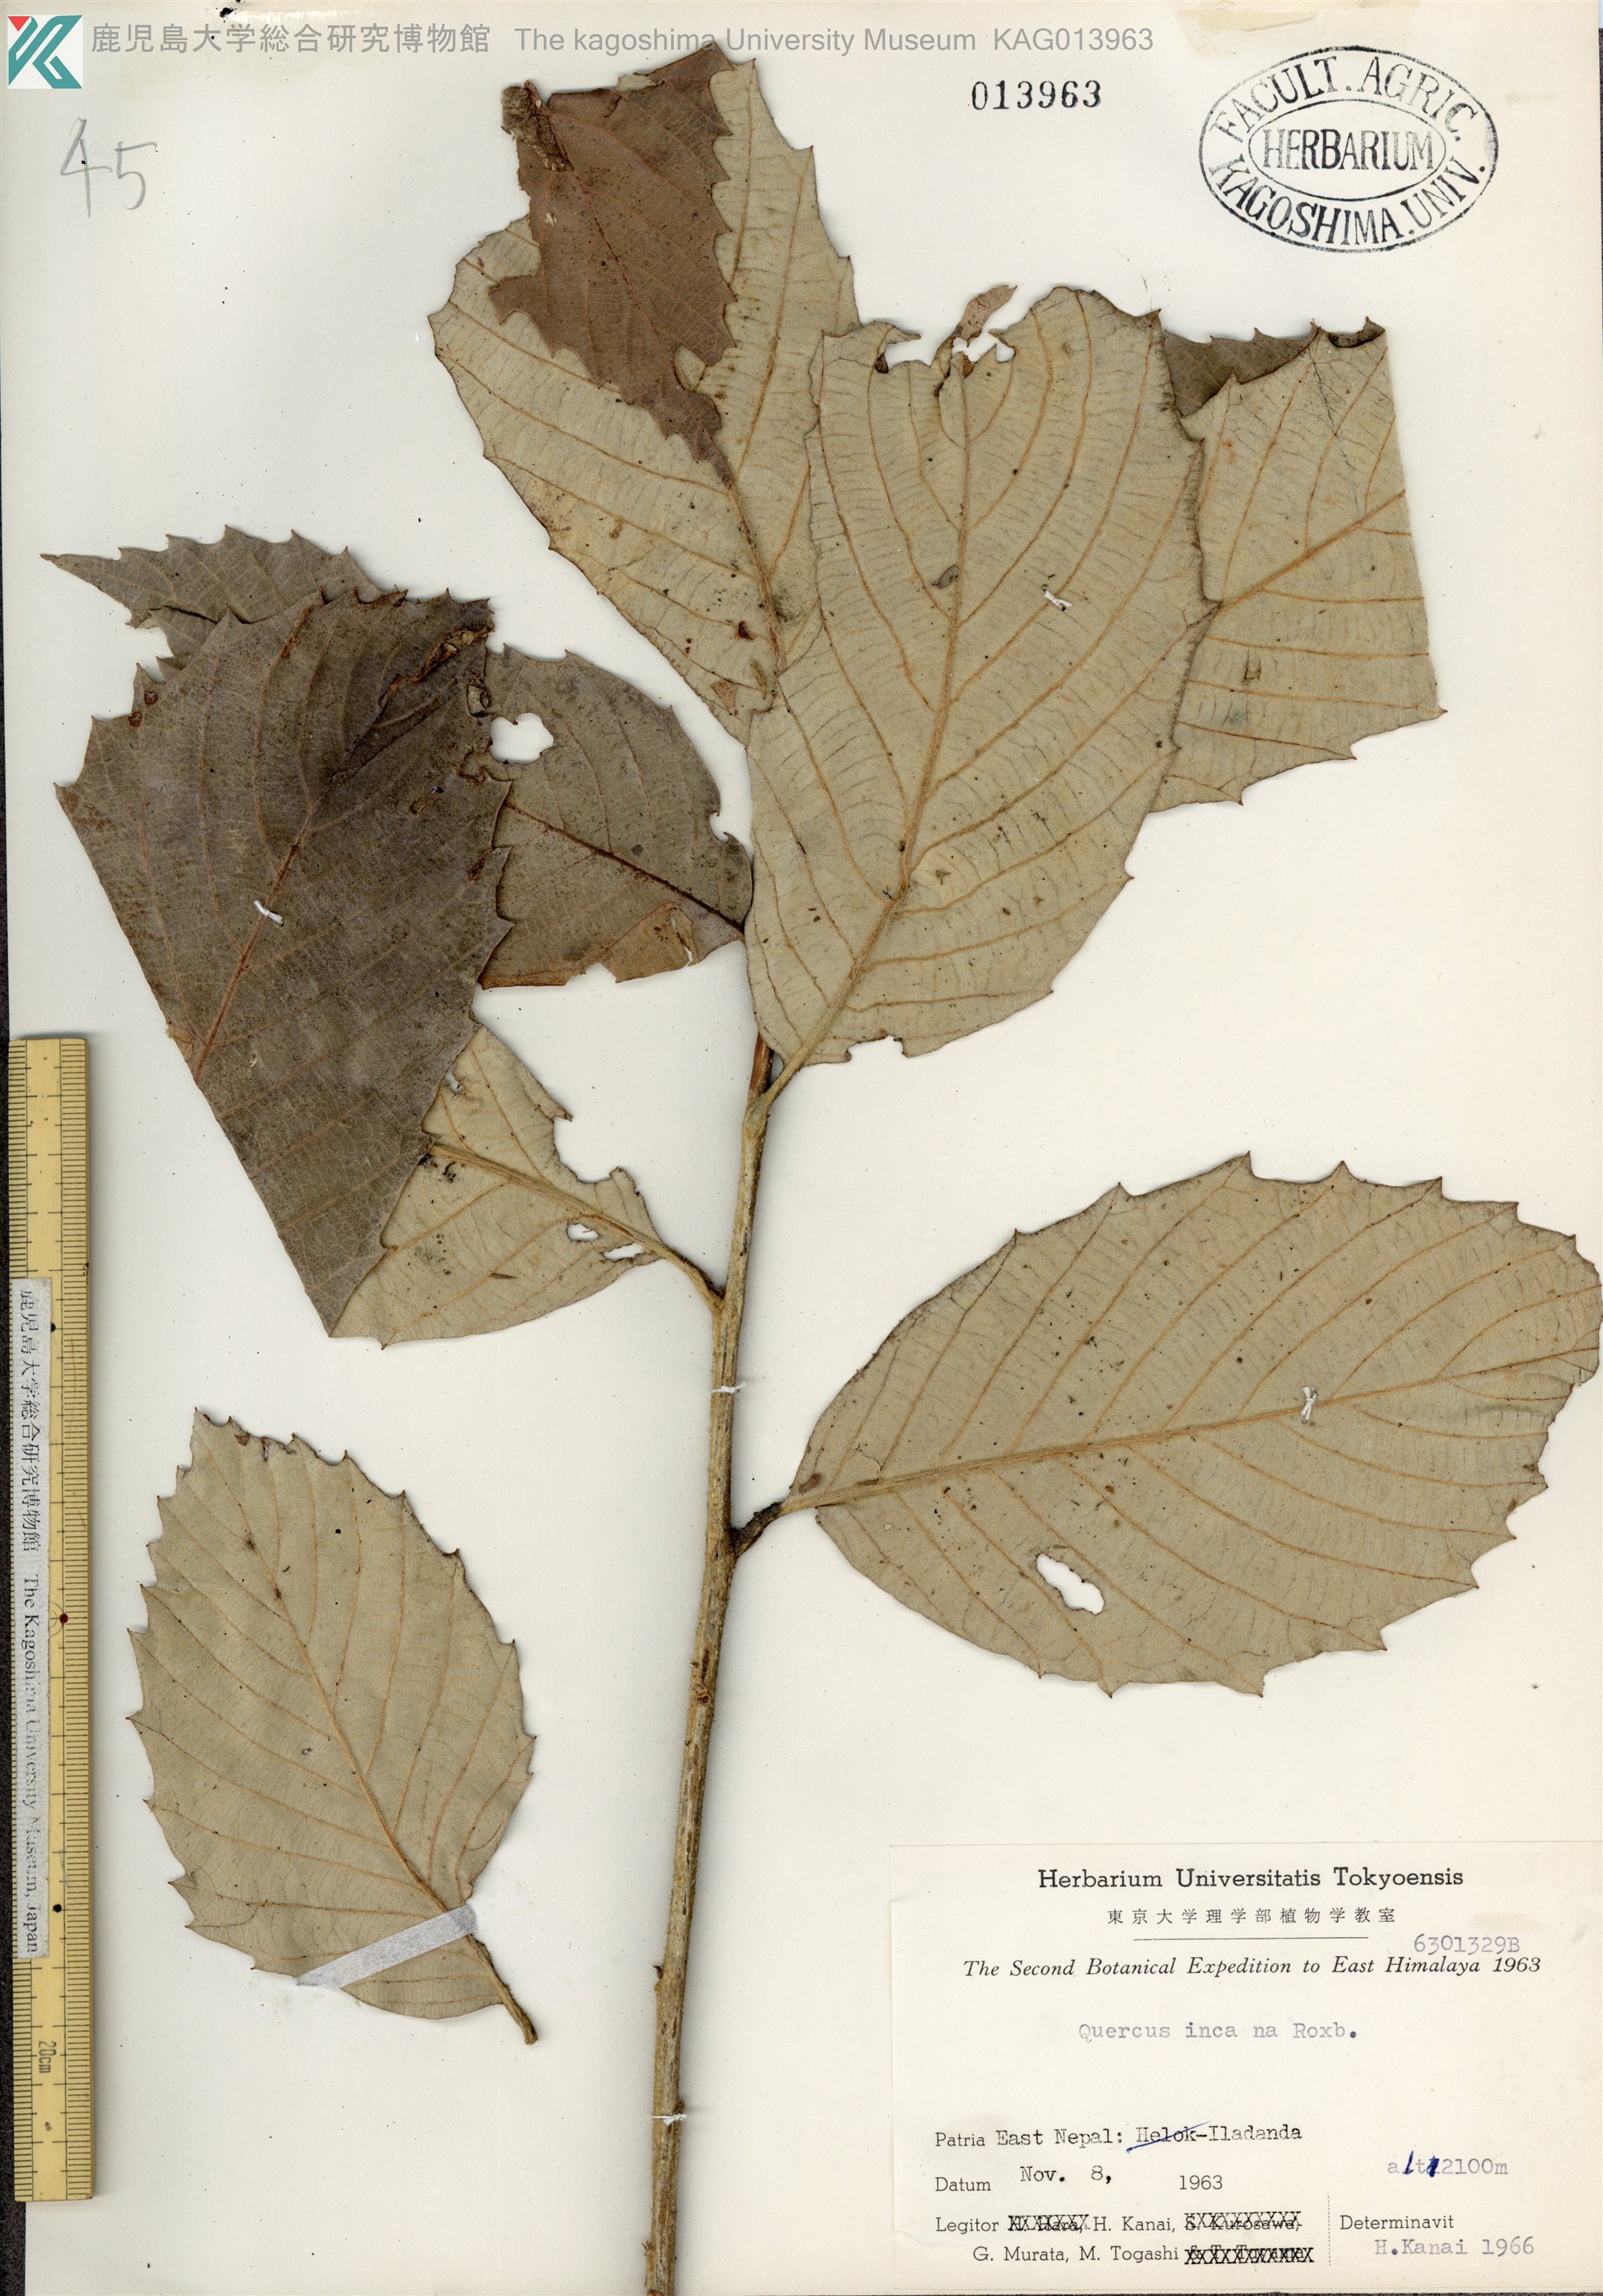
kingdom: Plantae
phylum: Tracheophyta
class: Magnoliopsida
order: Fagales
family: Fagaceae
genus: Quercus
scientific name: Quercus leucotrichophora
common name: Banj oak
